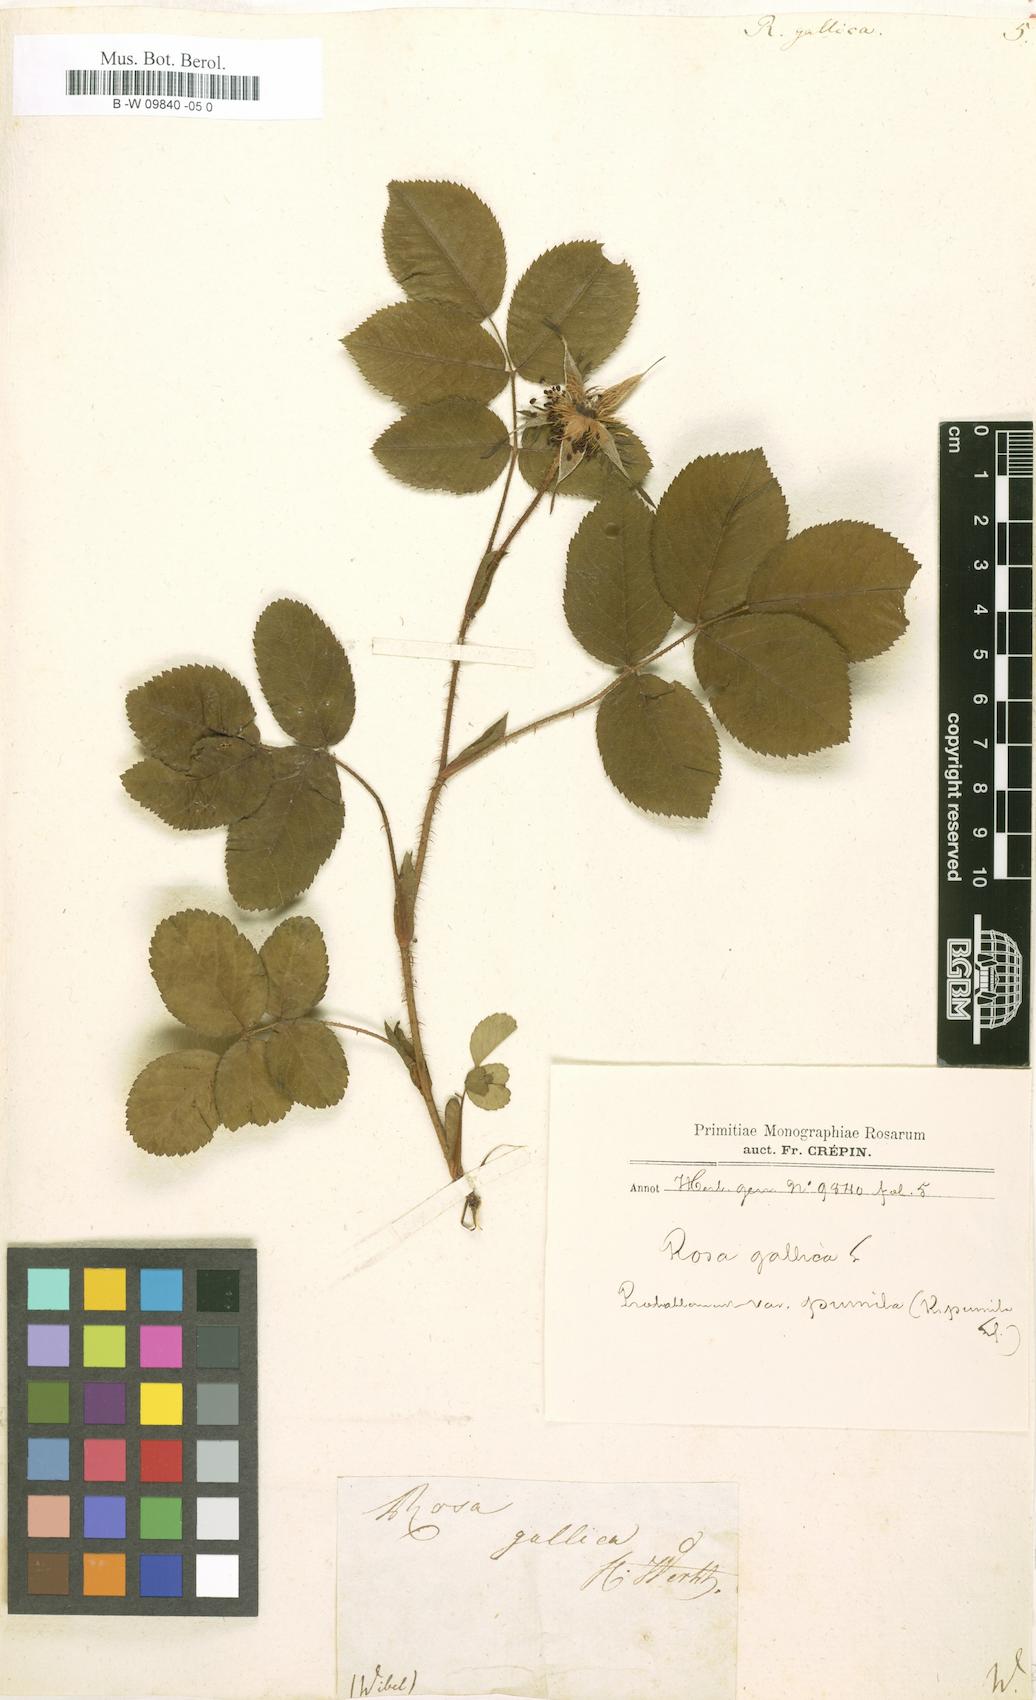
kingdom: Plantae
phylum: Tracheophyta
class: Magnoliopsida
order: Rosales
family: Rosaceae
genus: Rosa
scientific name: Rosa gallica
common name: French rose
